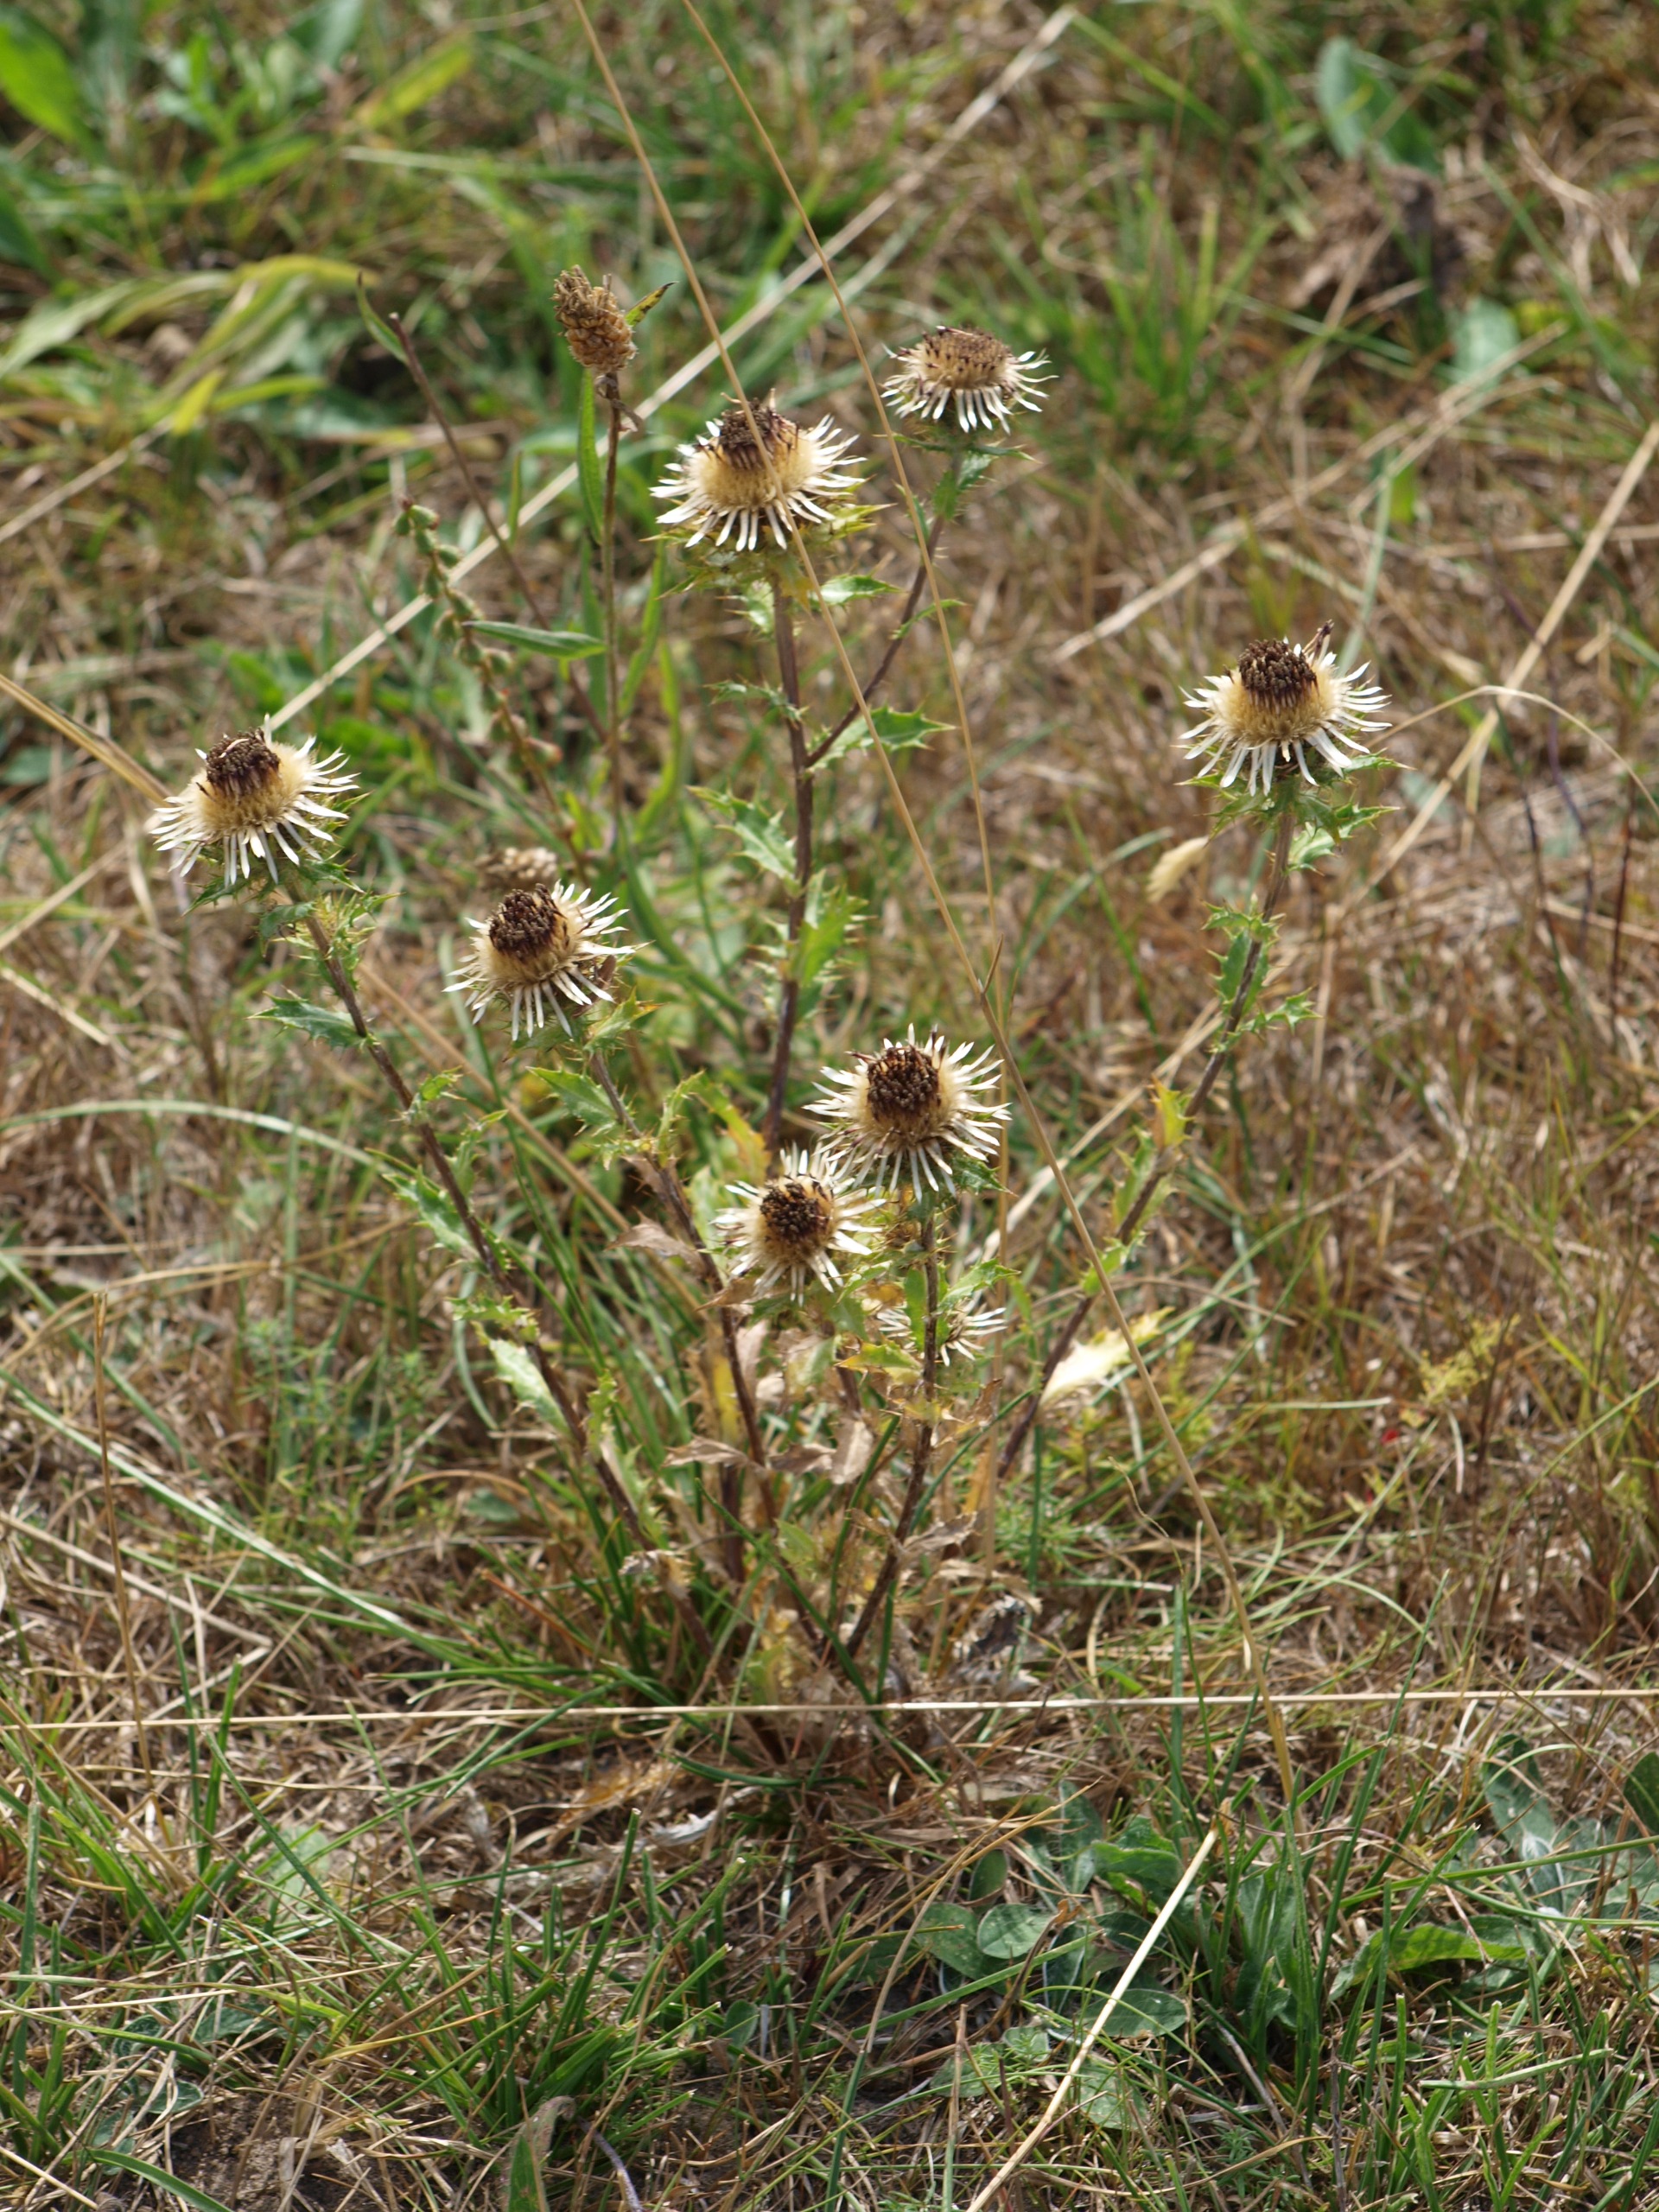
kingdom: Plantae
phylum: Tracheophyta
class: Magnoliopsida
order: Asterales
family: Asteraceae
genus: Carlina
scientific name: Carlina vulgaris
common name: Bakketidsel
